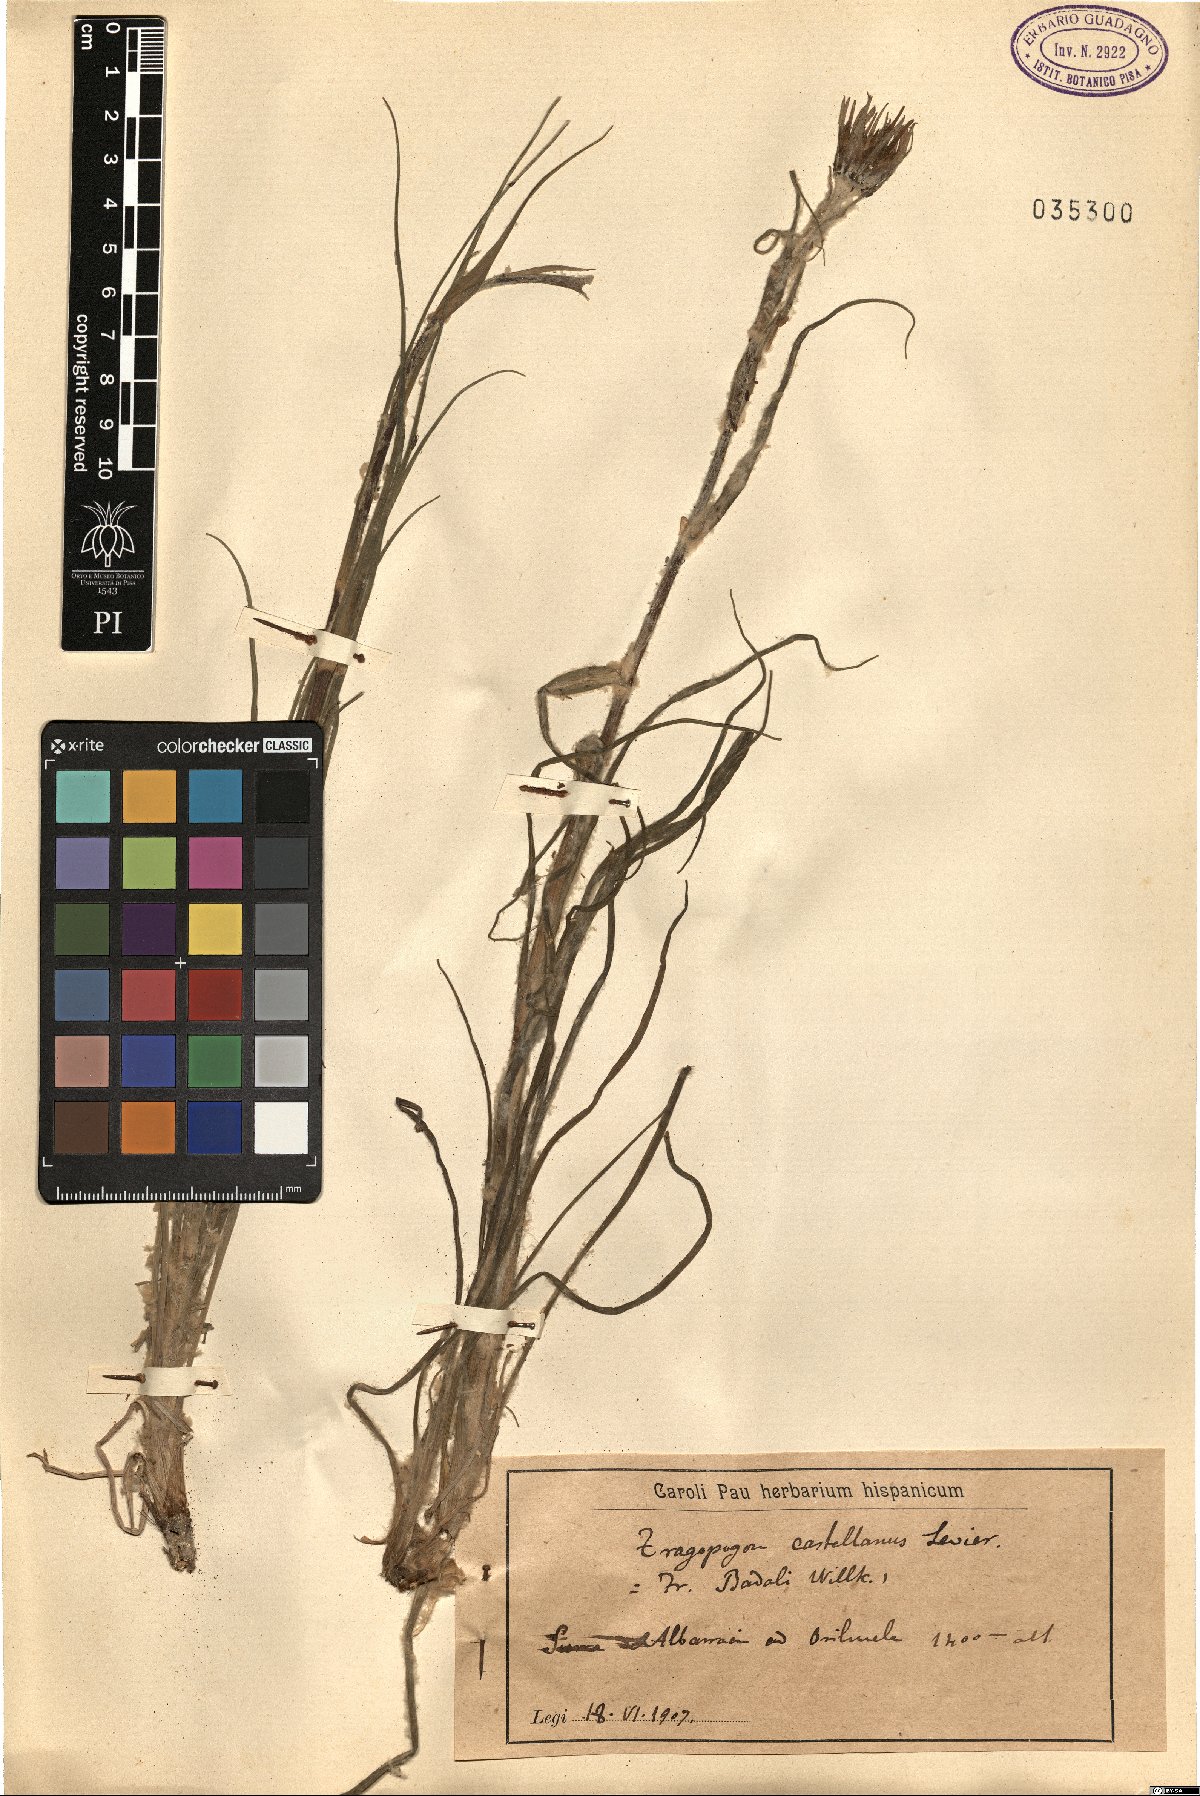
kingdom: Plantae
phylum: Tracheophyta
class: Magnoliopsida
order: Asterales
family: Asteraceae
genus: Tragopogon
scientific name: Tragopogon castellanus
